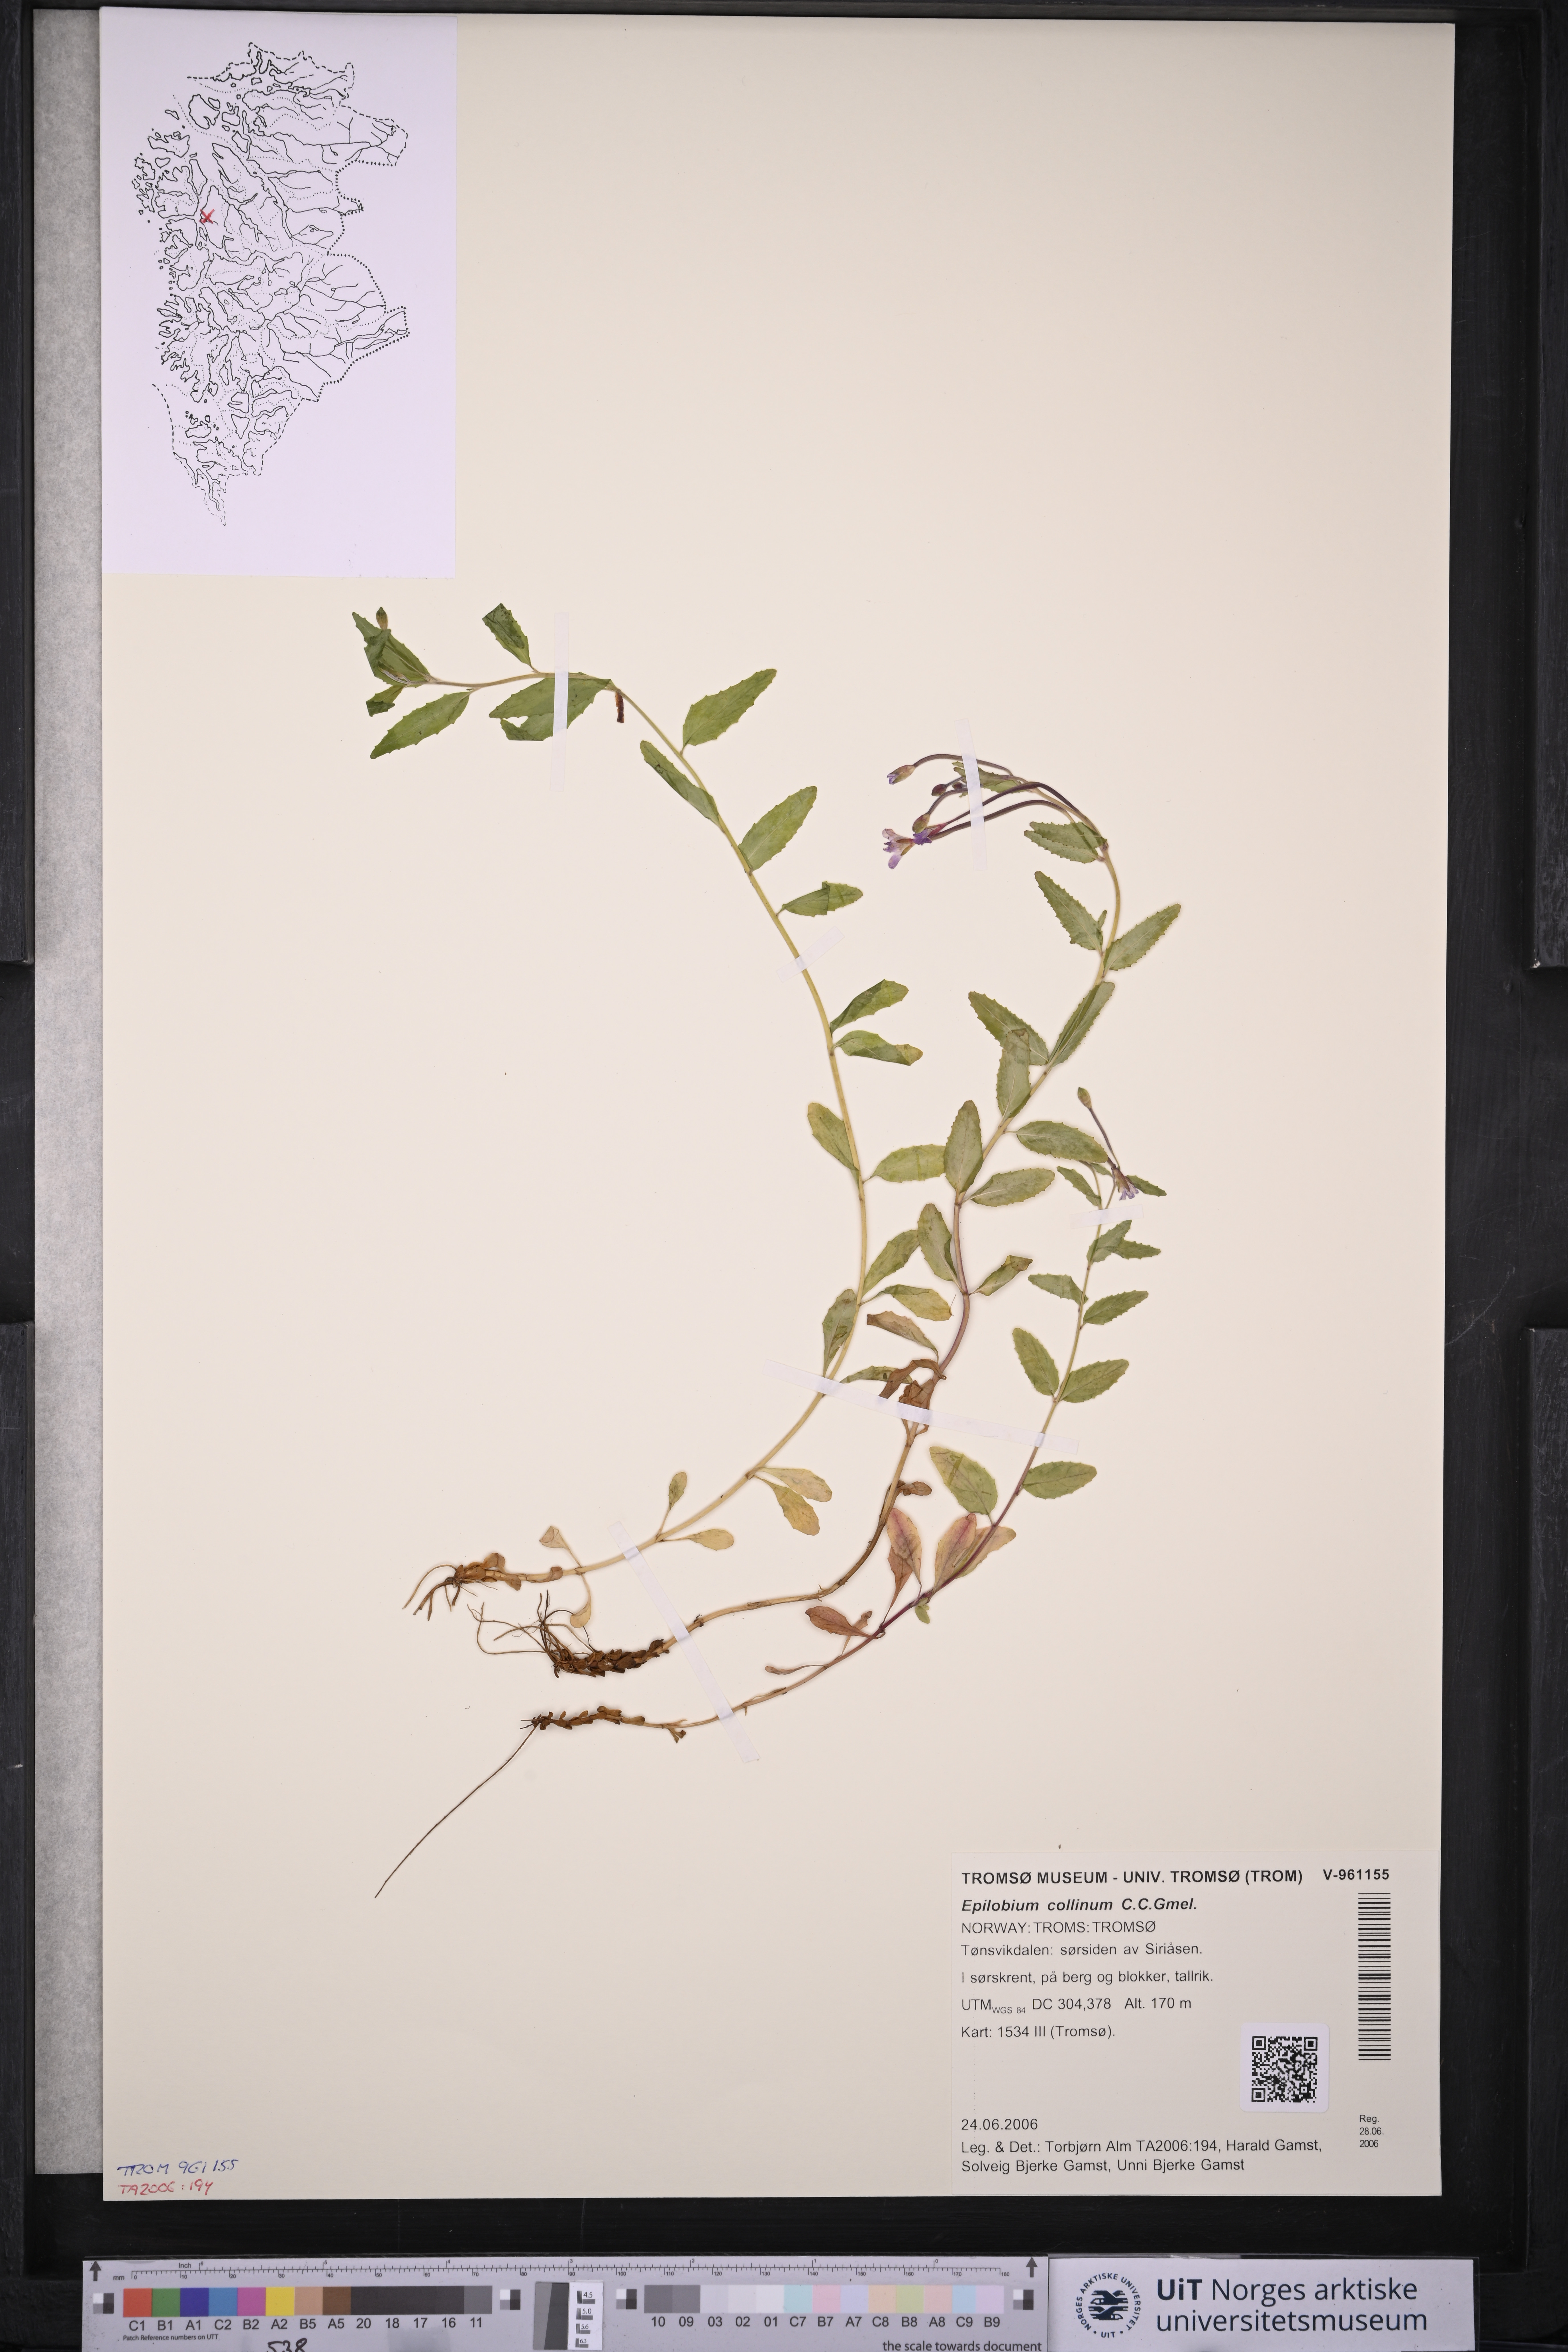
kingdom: Plantae
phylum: Tracheophyta
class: Magnoliopsida
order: Myrtales
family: Onagraceae
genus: Epilobium
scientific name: Epilobium collinum
